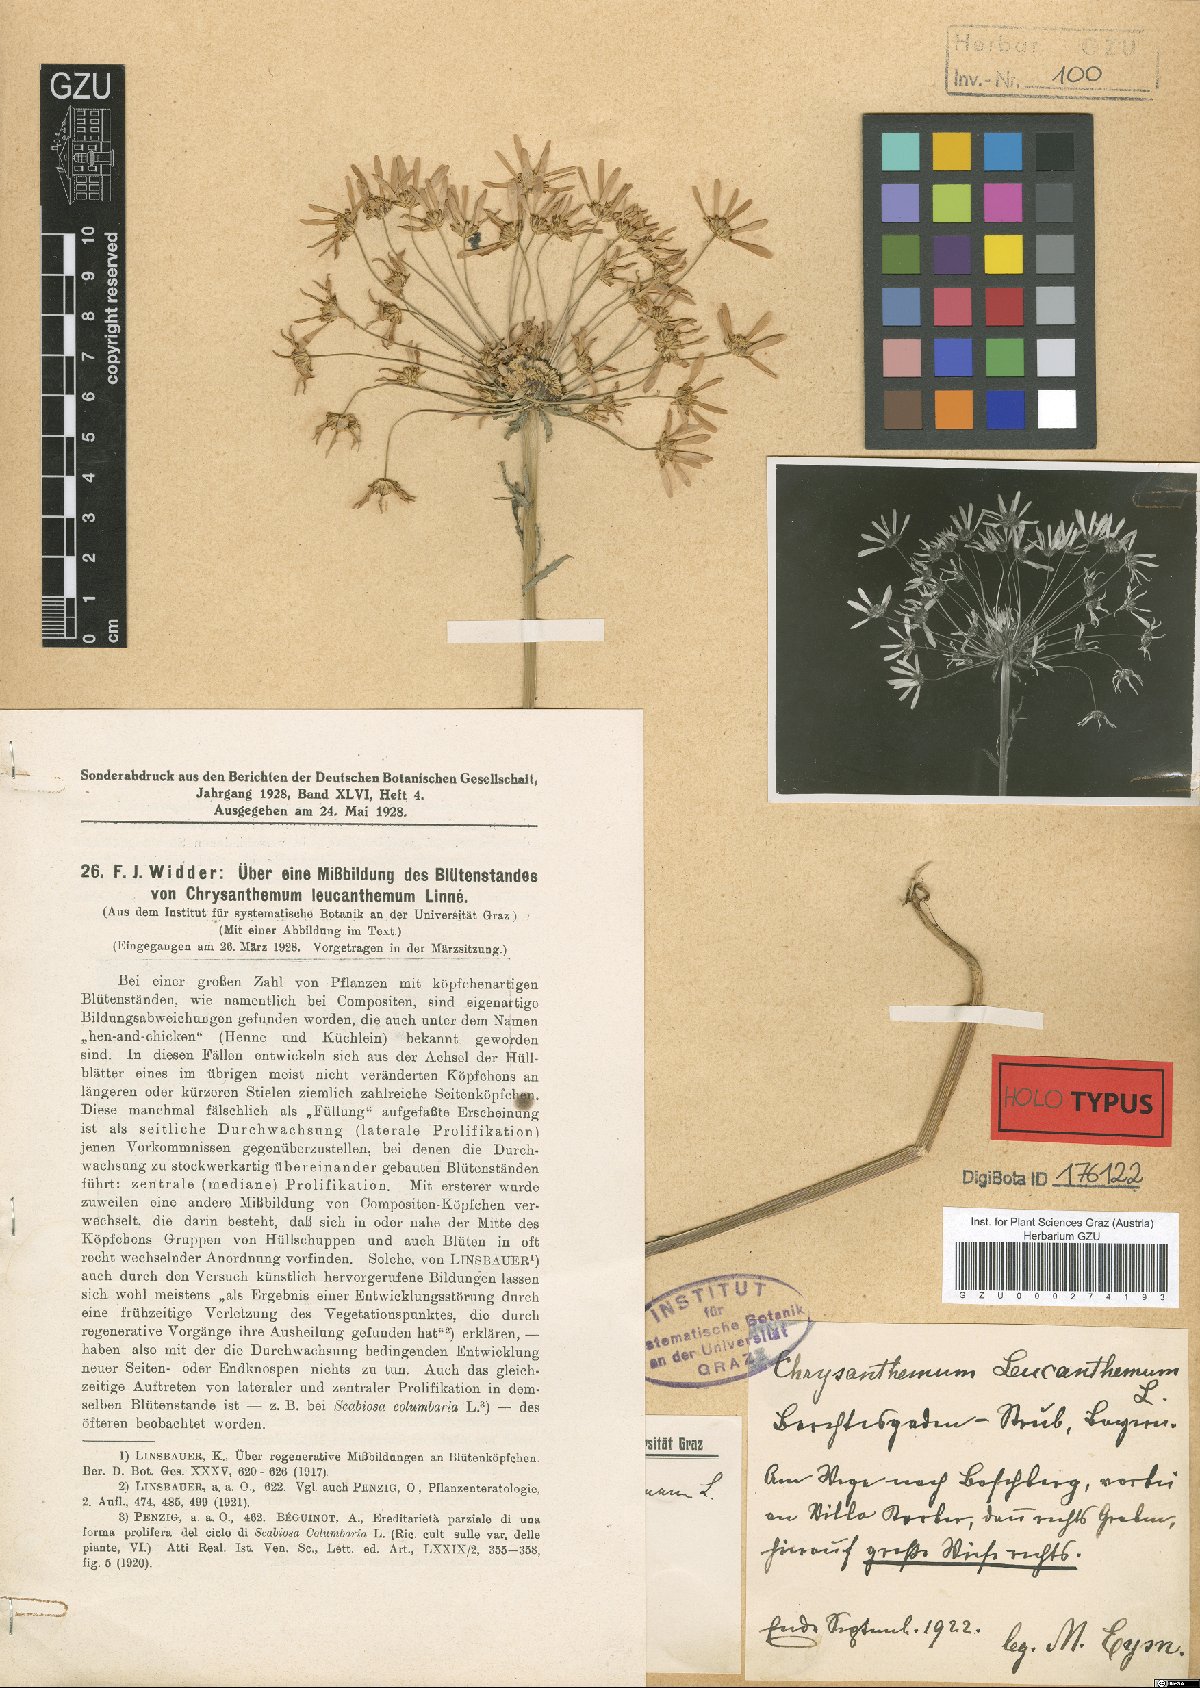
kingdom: Plantae
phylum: Tracheophyta
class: Magnoliopsida
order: Asterales
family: Asteraceae
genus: Leucanthemum
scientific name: Leucanthemum vulgare
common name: Oxeye daisy
